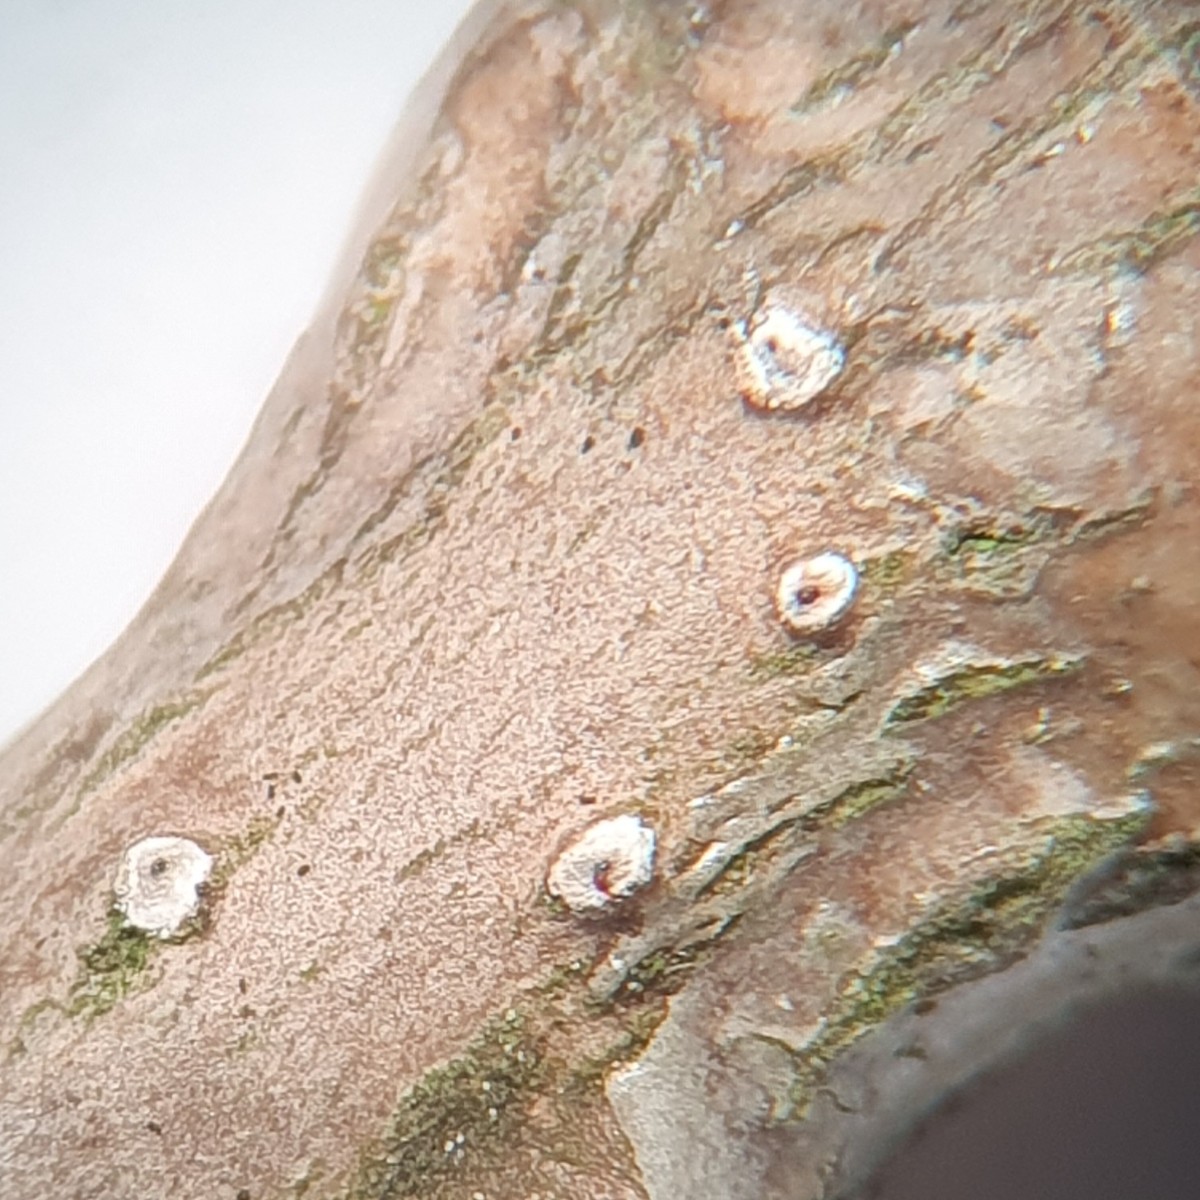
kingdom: Fungi
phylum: Ascomycota
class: Sordariomycetes
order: Diaporthales
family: Valsaceae
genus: Cytospora
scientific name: Cytospora nivea
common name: hvidskivet kulknippe
